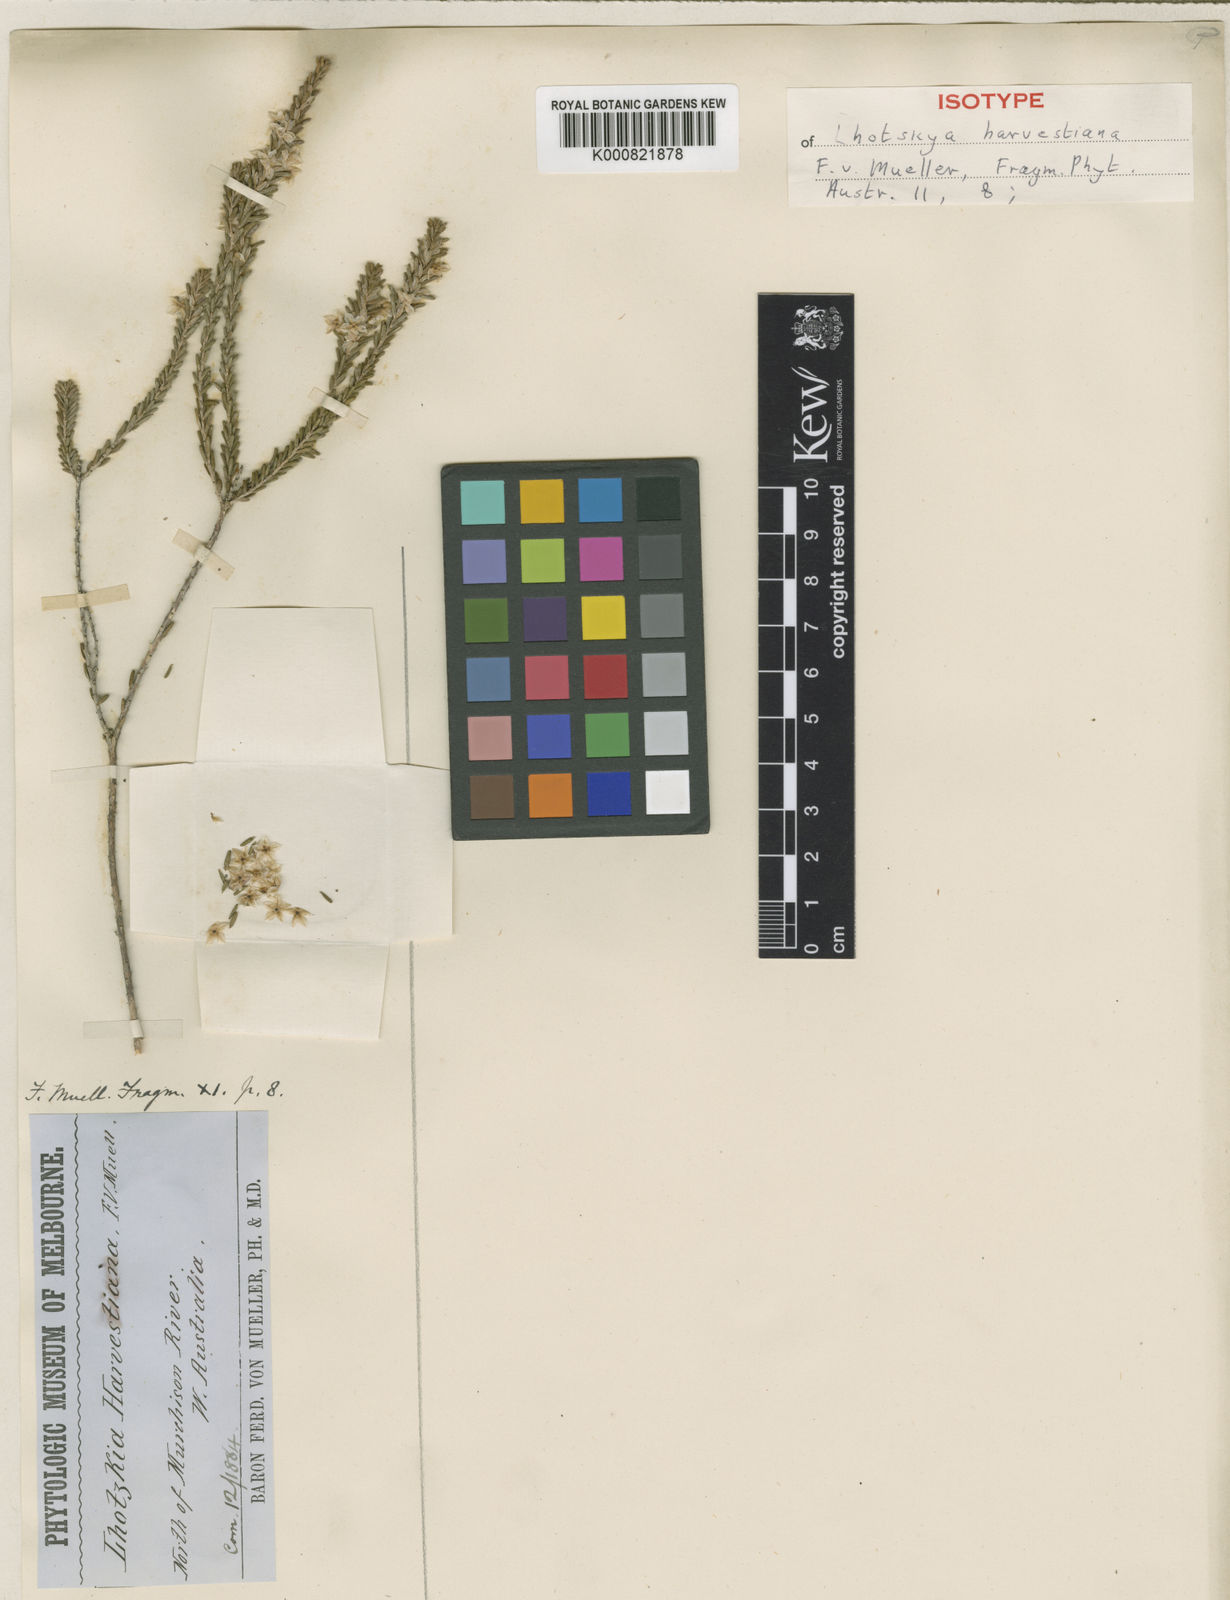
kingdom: Plantae
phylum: Tracheophyta
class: Magnoliopsida
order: Myrtales
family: Myrtaceae
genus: Calytrix
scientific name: Calytrix harvestiana
